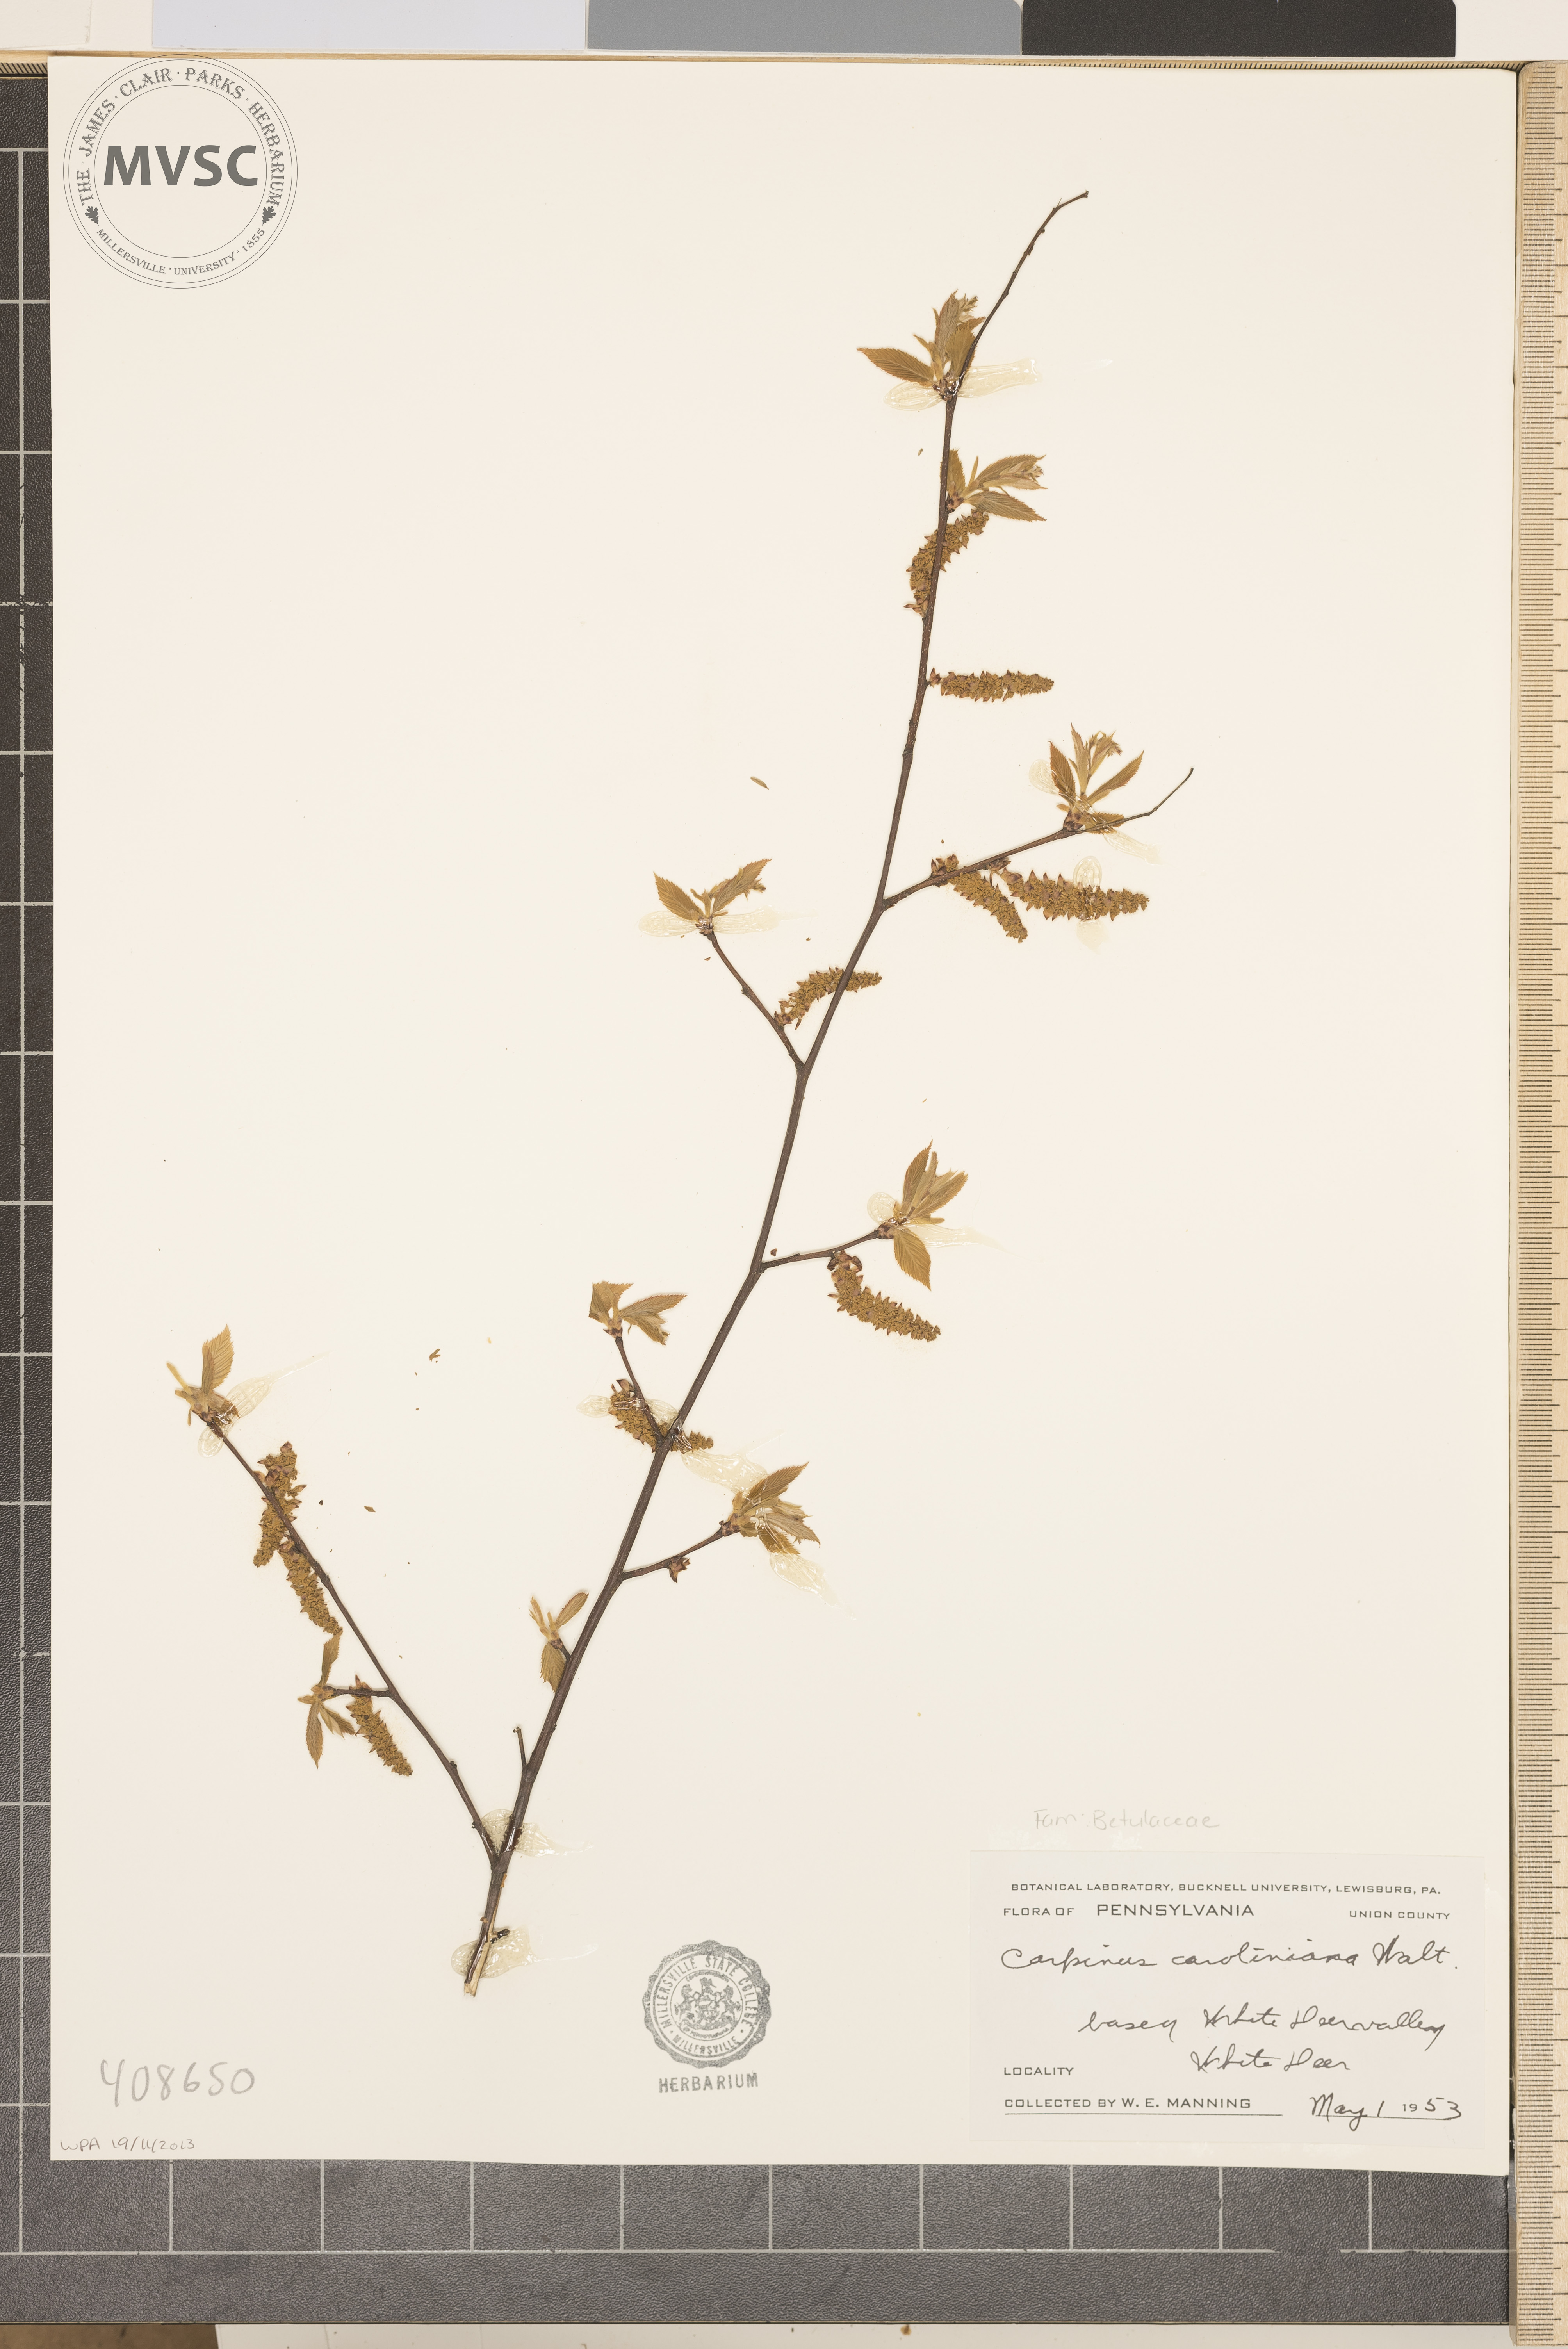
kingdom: Plantae
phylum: Tracheophyta
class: Magnoliopsida
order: Fagales
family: Betulaceae
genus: Carpinus
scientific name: Carpinus caroliniana
